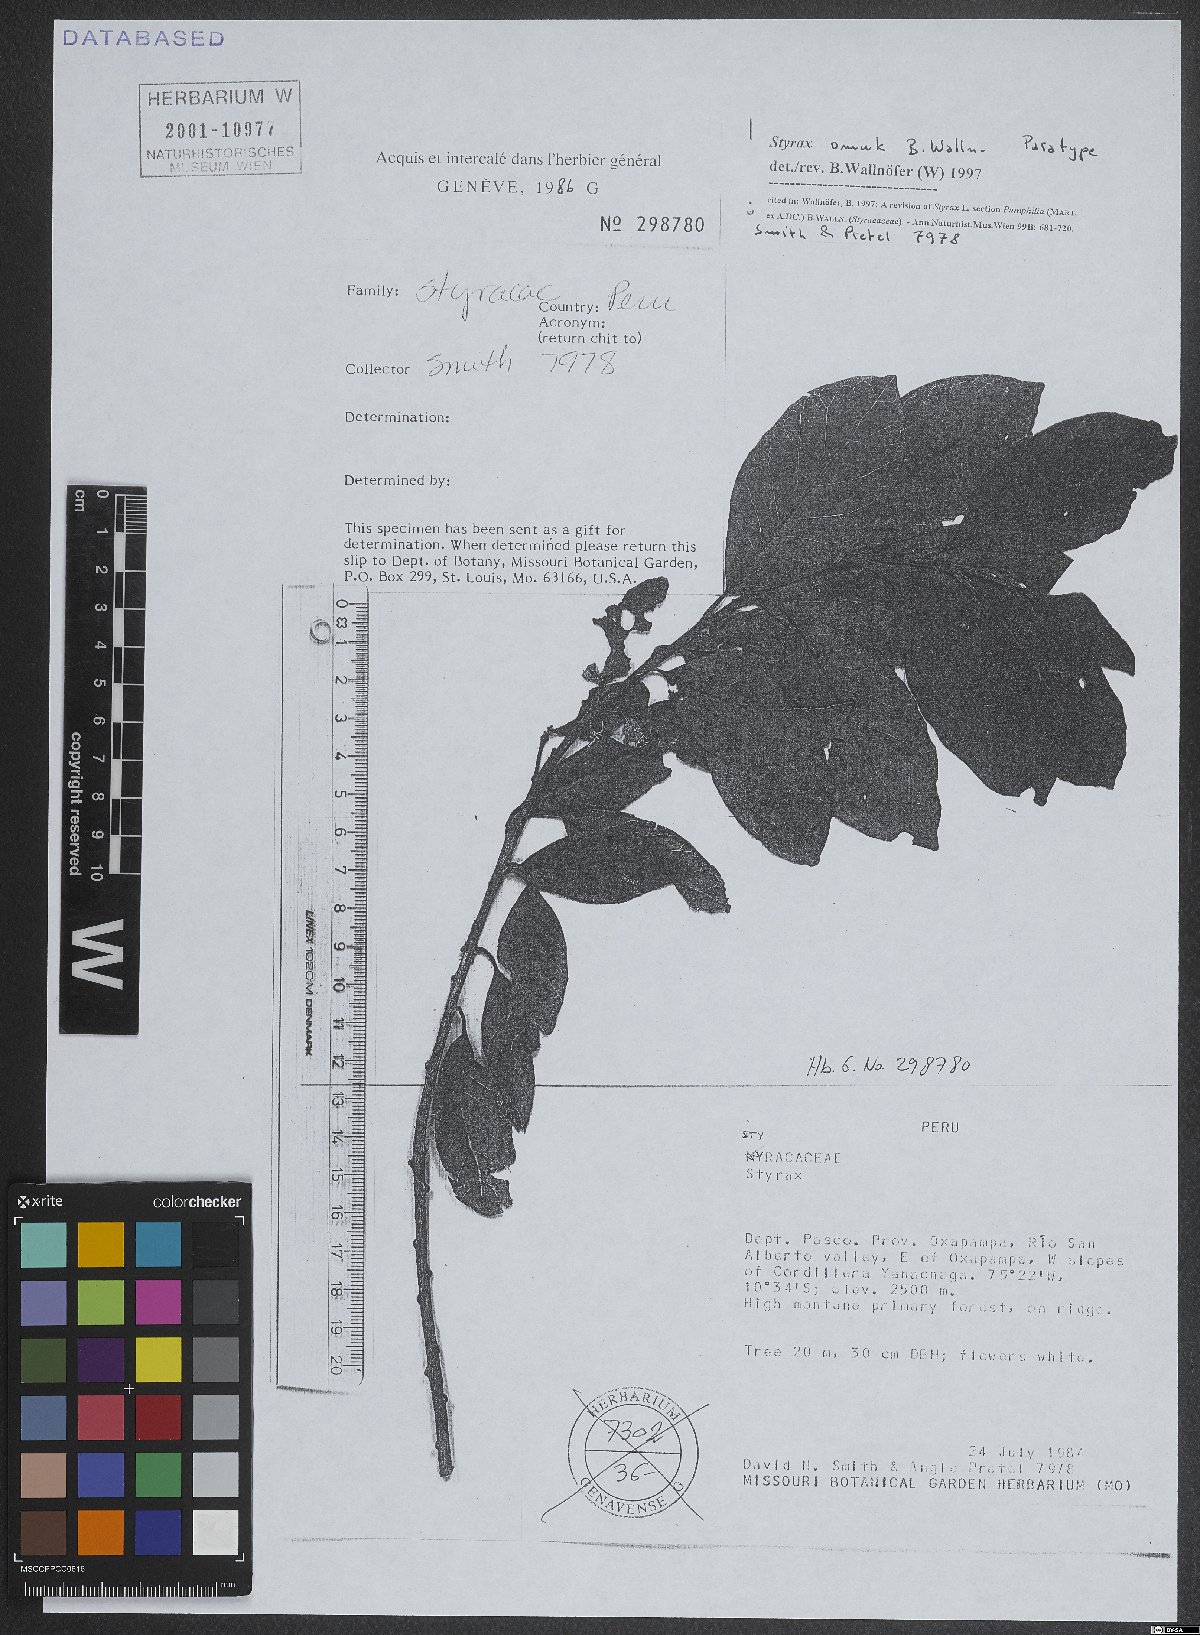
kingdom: Plantae
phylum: Tracheophyta
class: Magnoliopsida
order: Ericales
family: Styracaceae
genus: Styrax
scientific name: Styrax omuk
